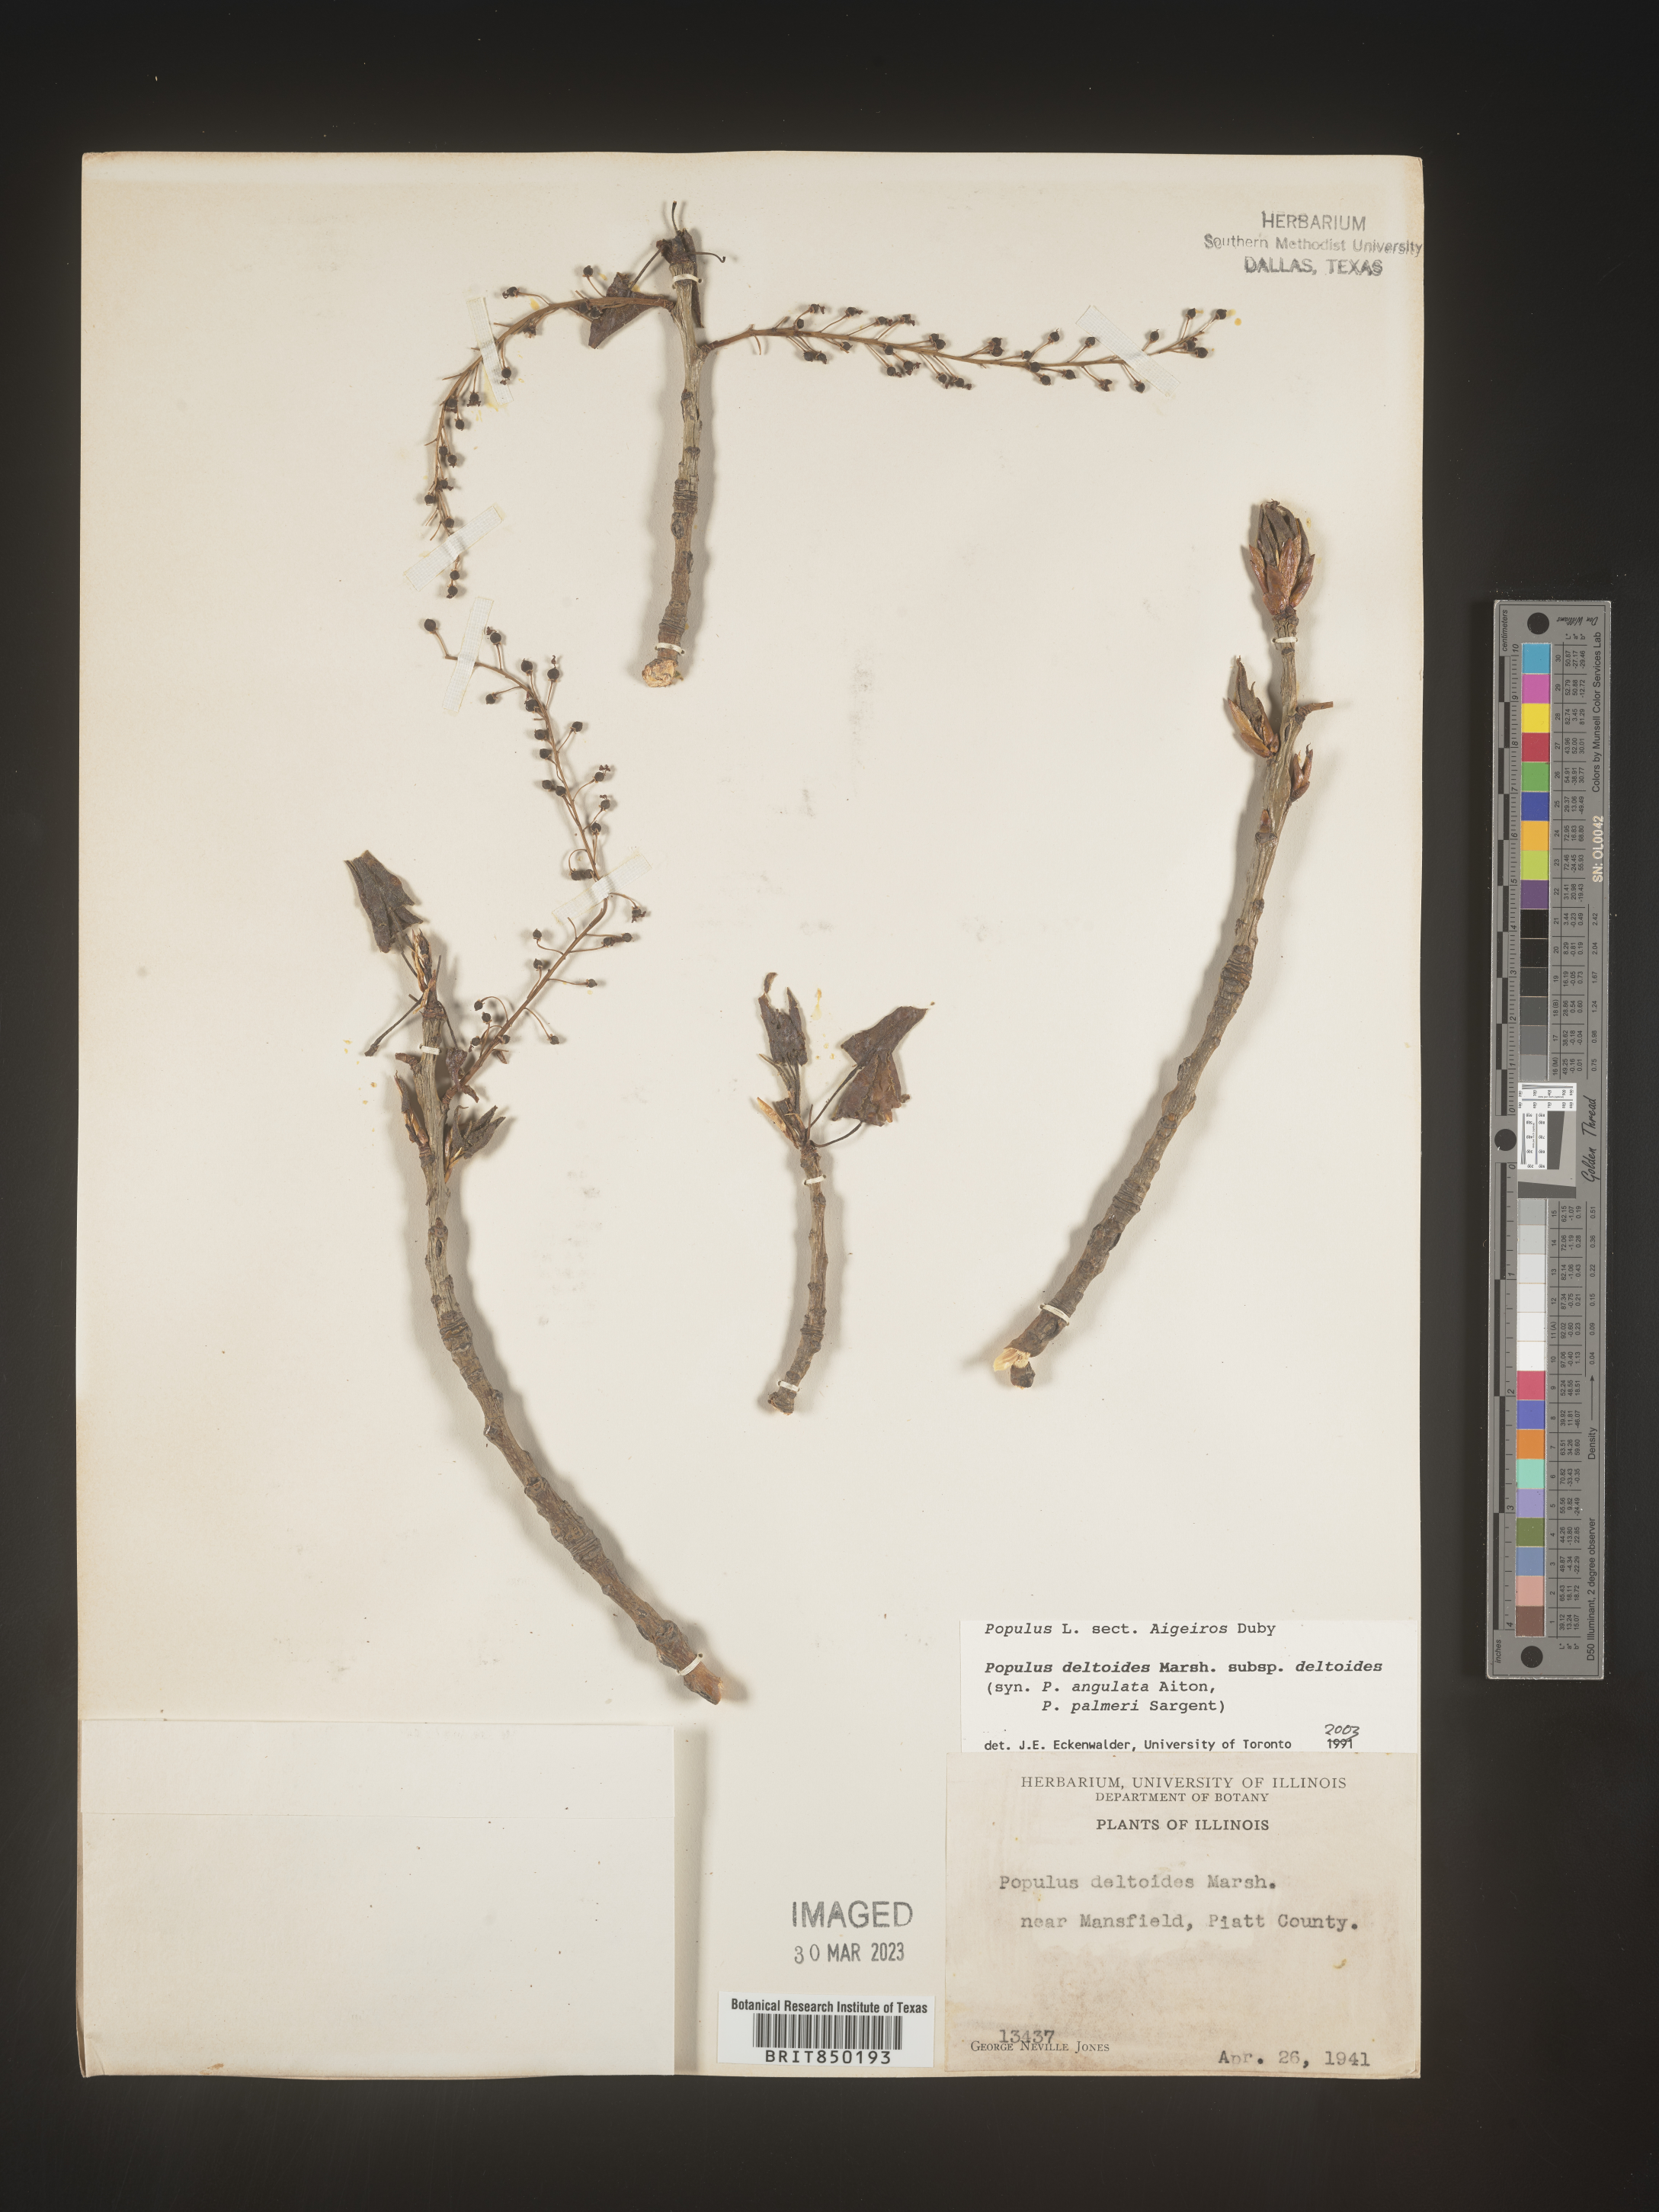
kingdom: Plantae
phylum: Tracheophyta
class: Magnoliopsida
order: Malpighiales
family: Salicaceae
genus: Populus
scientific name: Populus deltoides
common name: Eastern cottonwood
